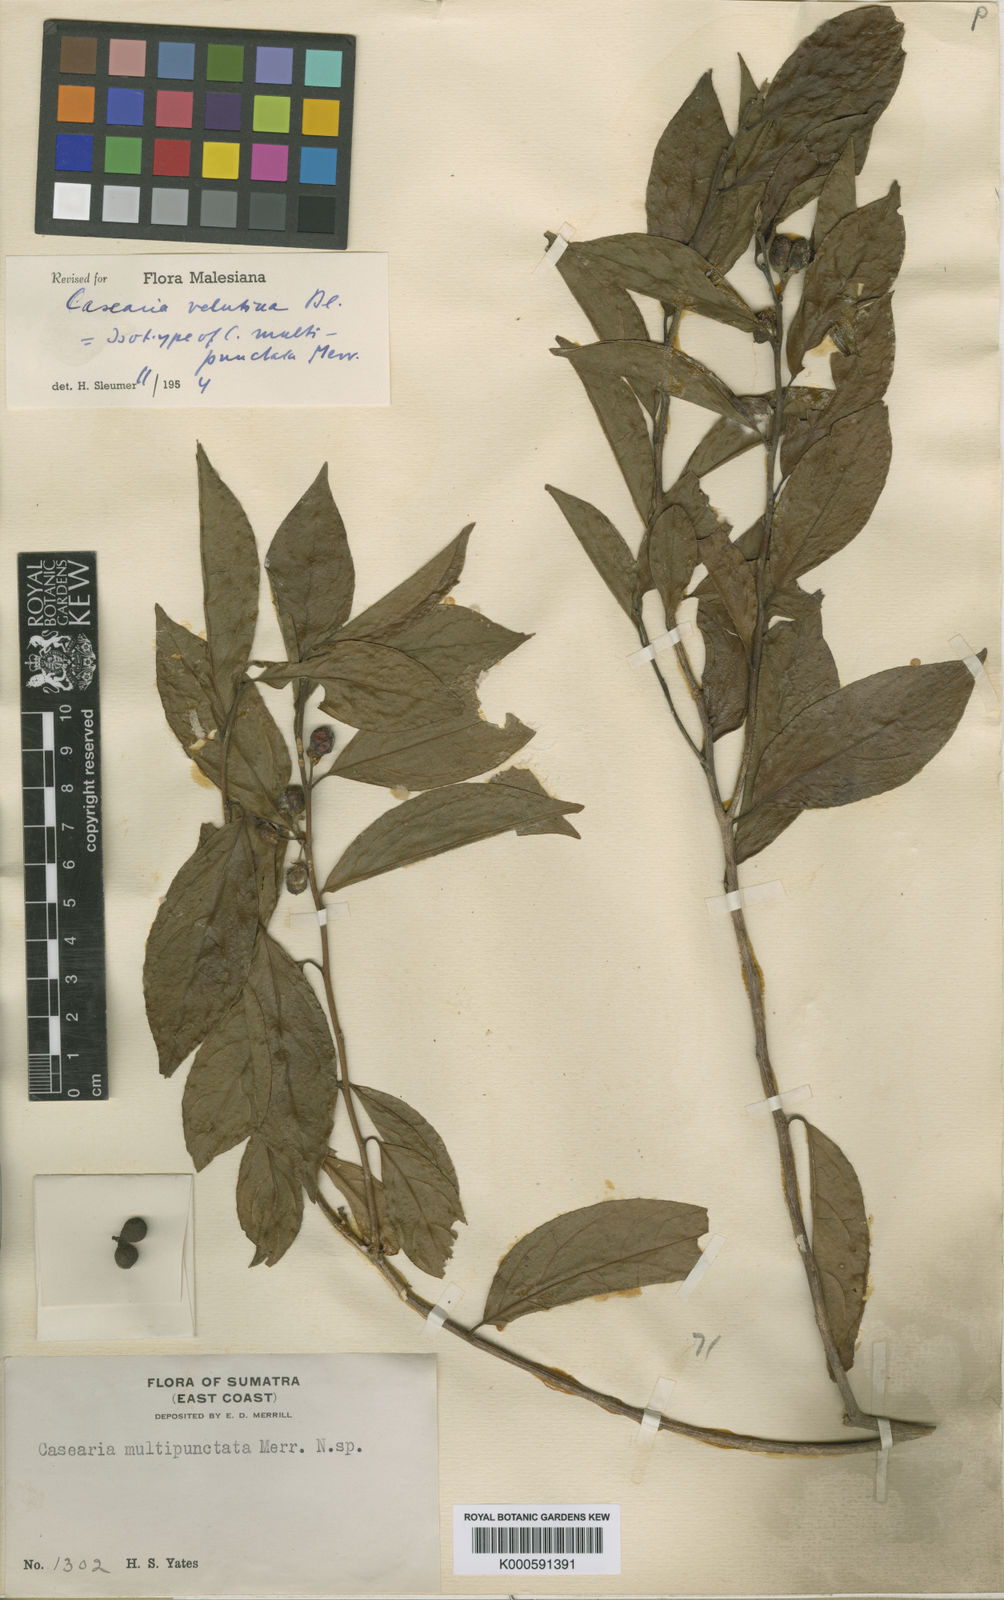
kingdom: Plantae
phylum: Tracheophyta
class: Magnoliopsida
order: Malpighiales
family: Salicaceae
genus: Casearia
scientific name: Casearia velutina
